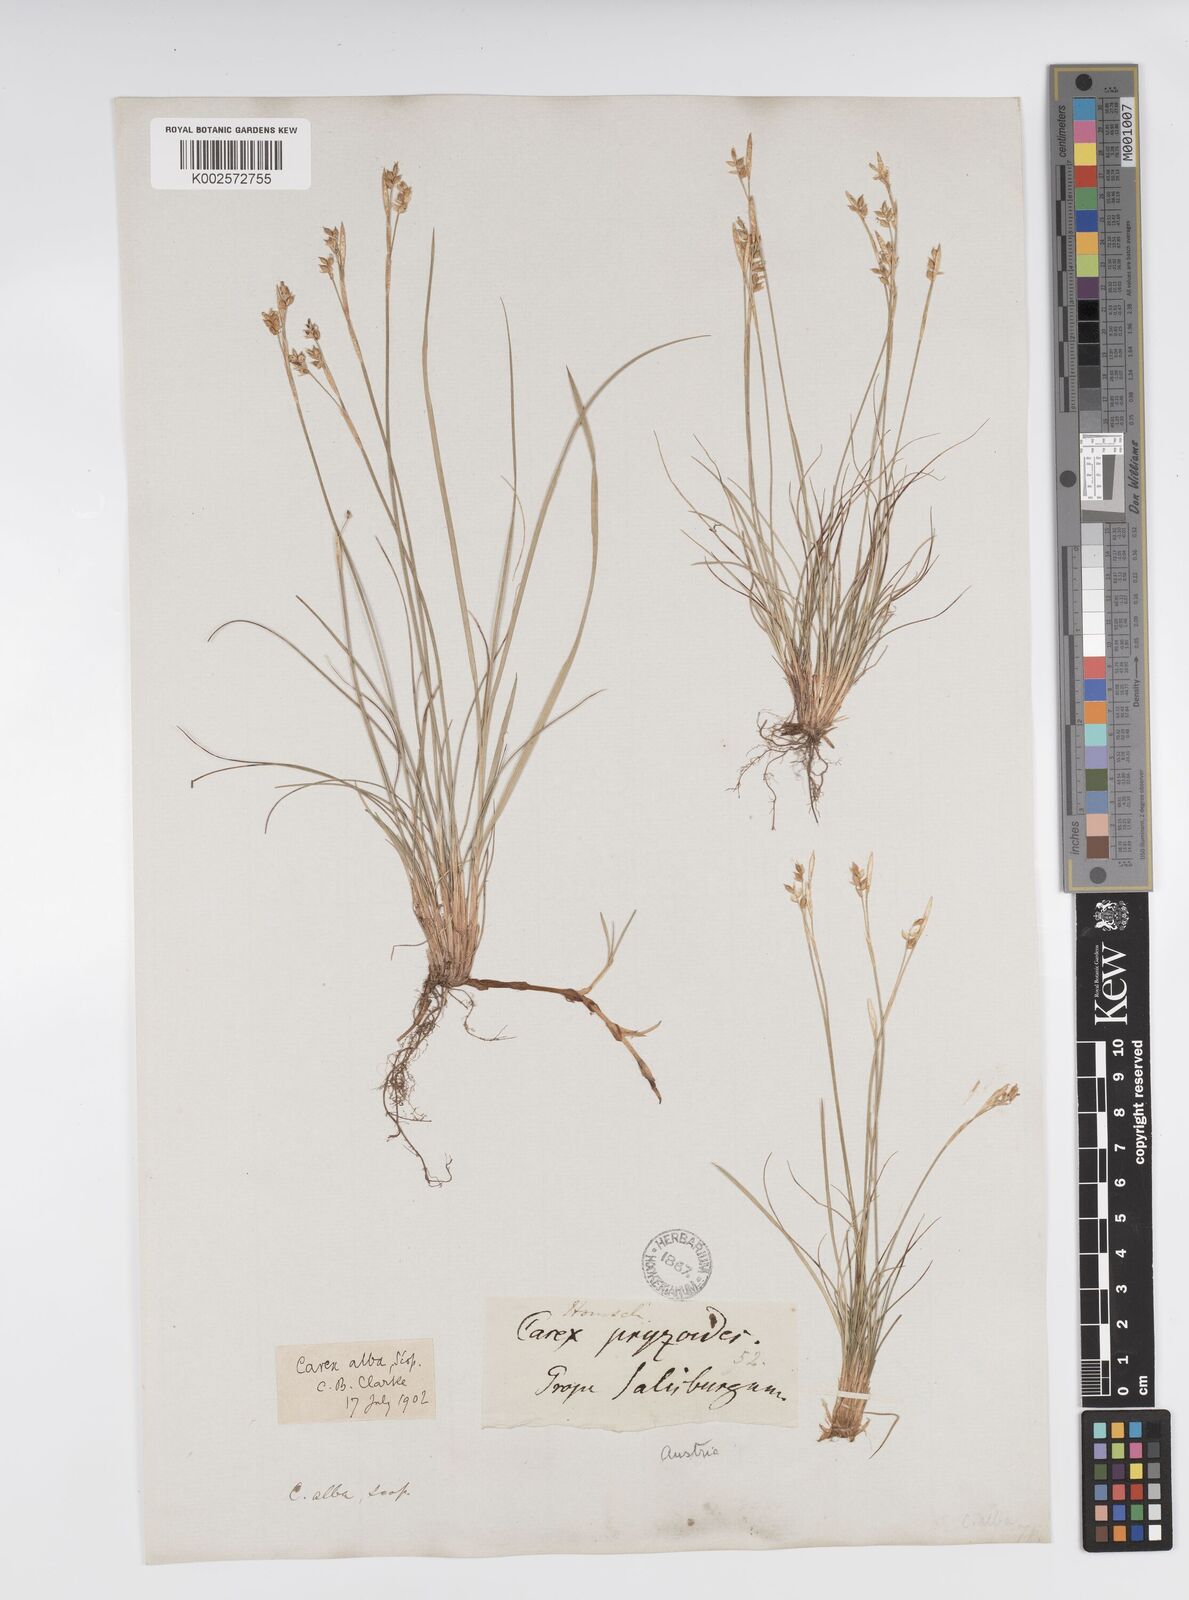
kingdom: Plantae
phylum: Tracheophyta
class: Liliopsida
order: Poales
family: Cyperaceae
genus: Carex
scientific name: Carex alba
